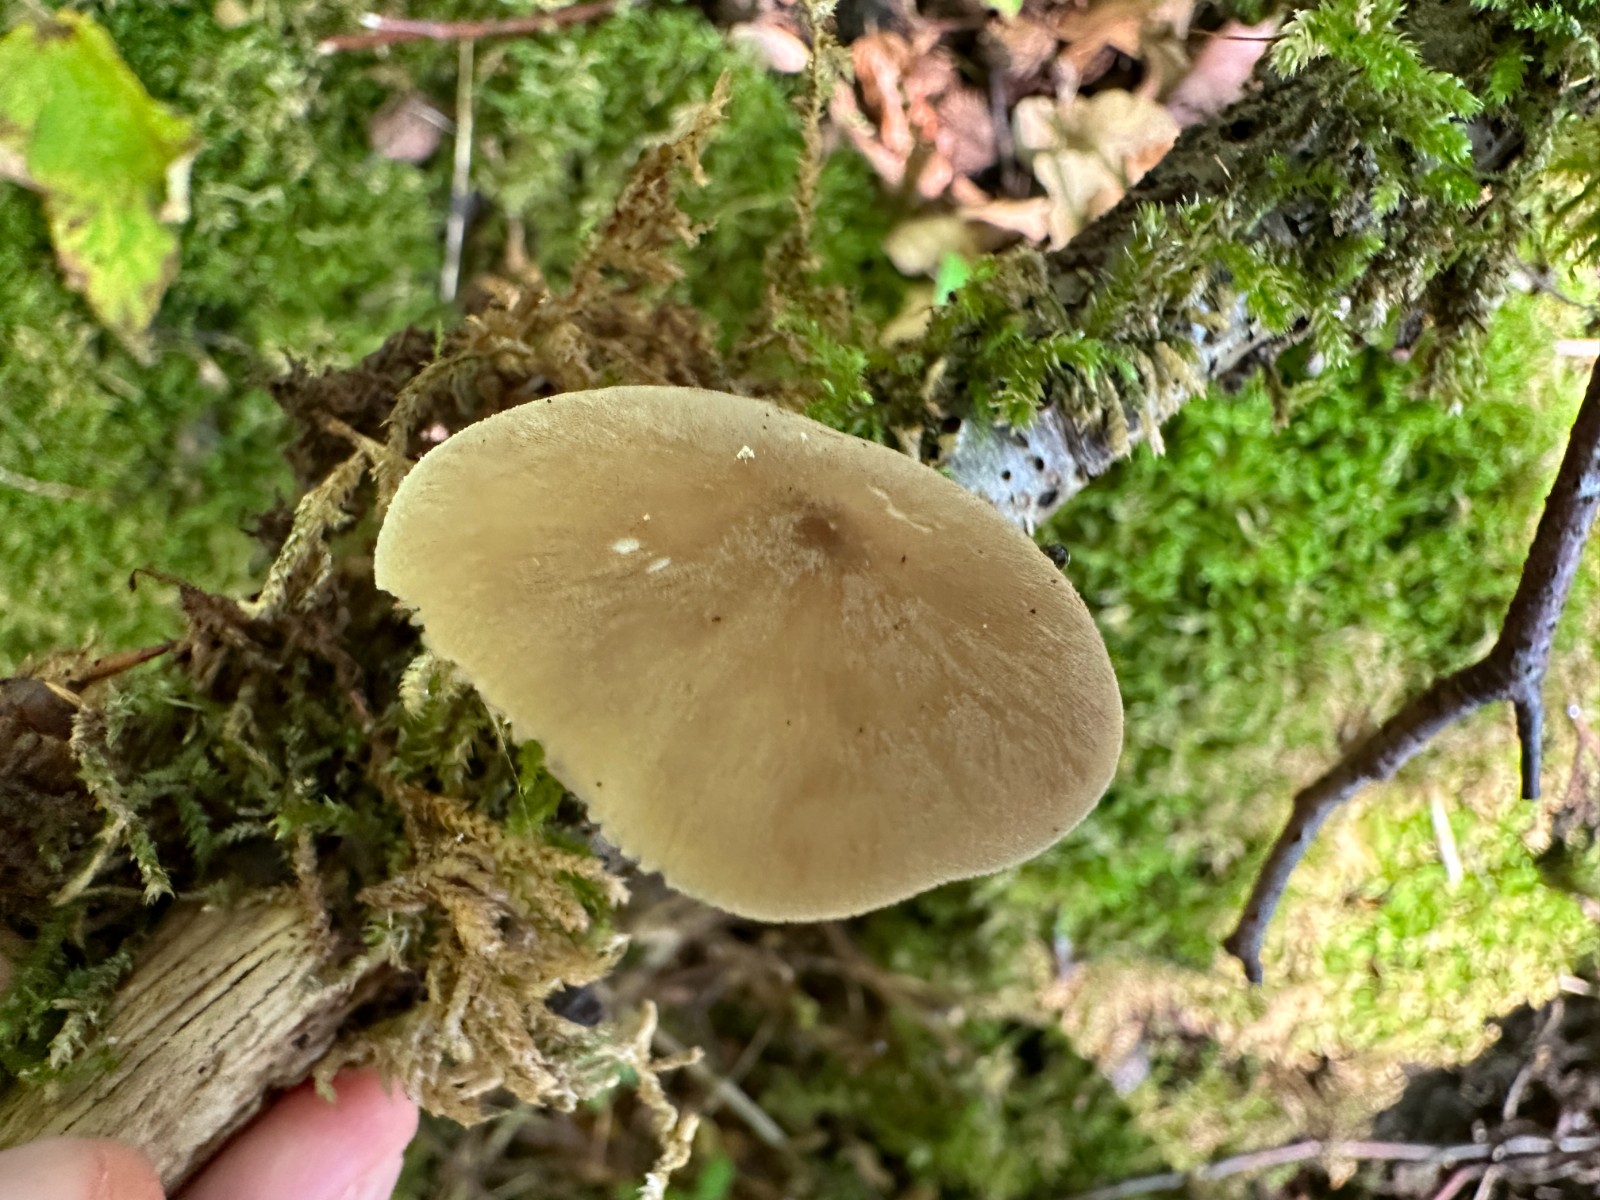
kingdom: Fungi
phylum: Basidiomycota
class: Agaricomycetes
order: Agaricales
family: Pluteaceae
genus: Pluteus
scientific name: Pluteus
